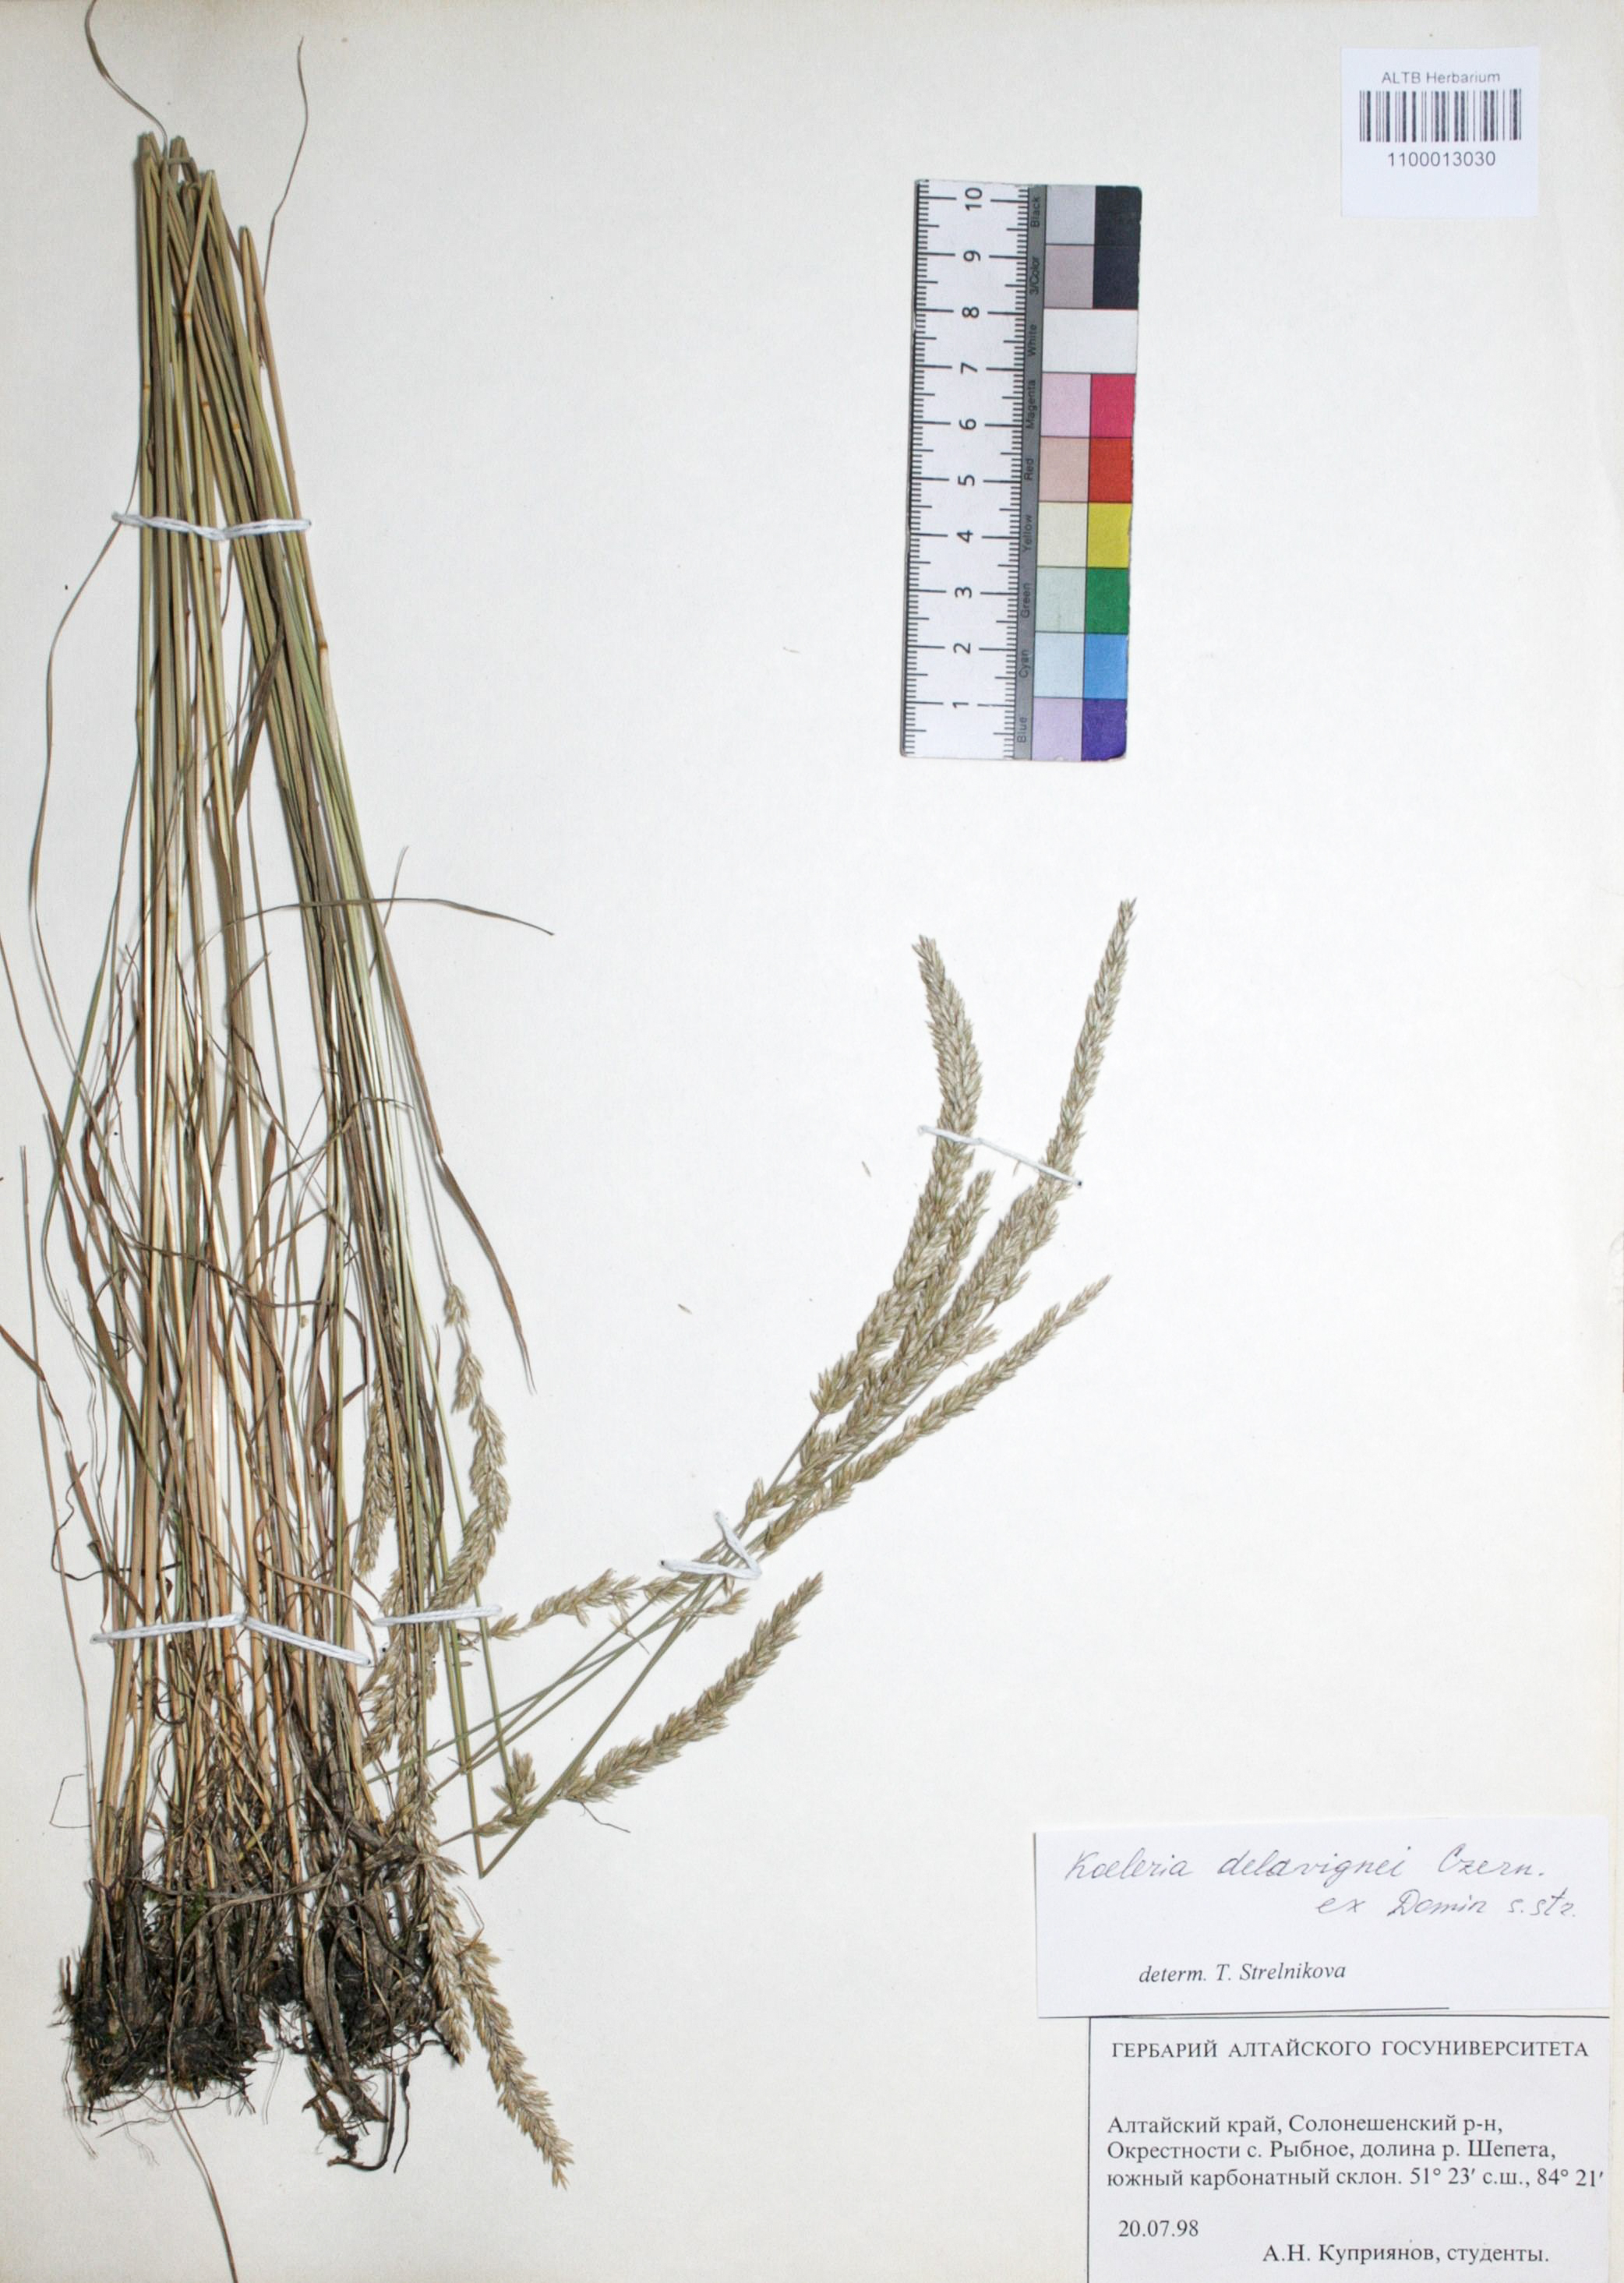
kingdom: Plantae
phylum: Tracheophyta
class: Liliopsida
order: Poales
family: Poaceae
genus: Koeleria
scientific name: Koeleria delavignei
